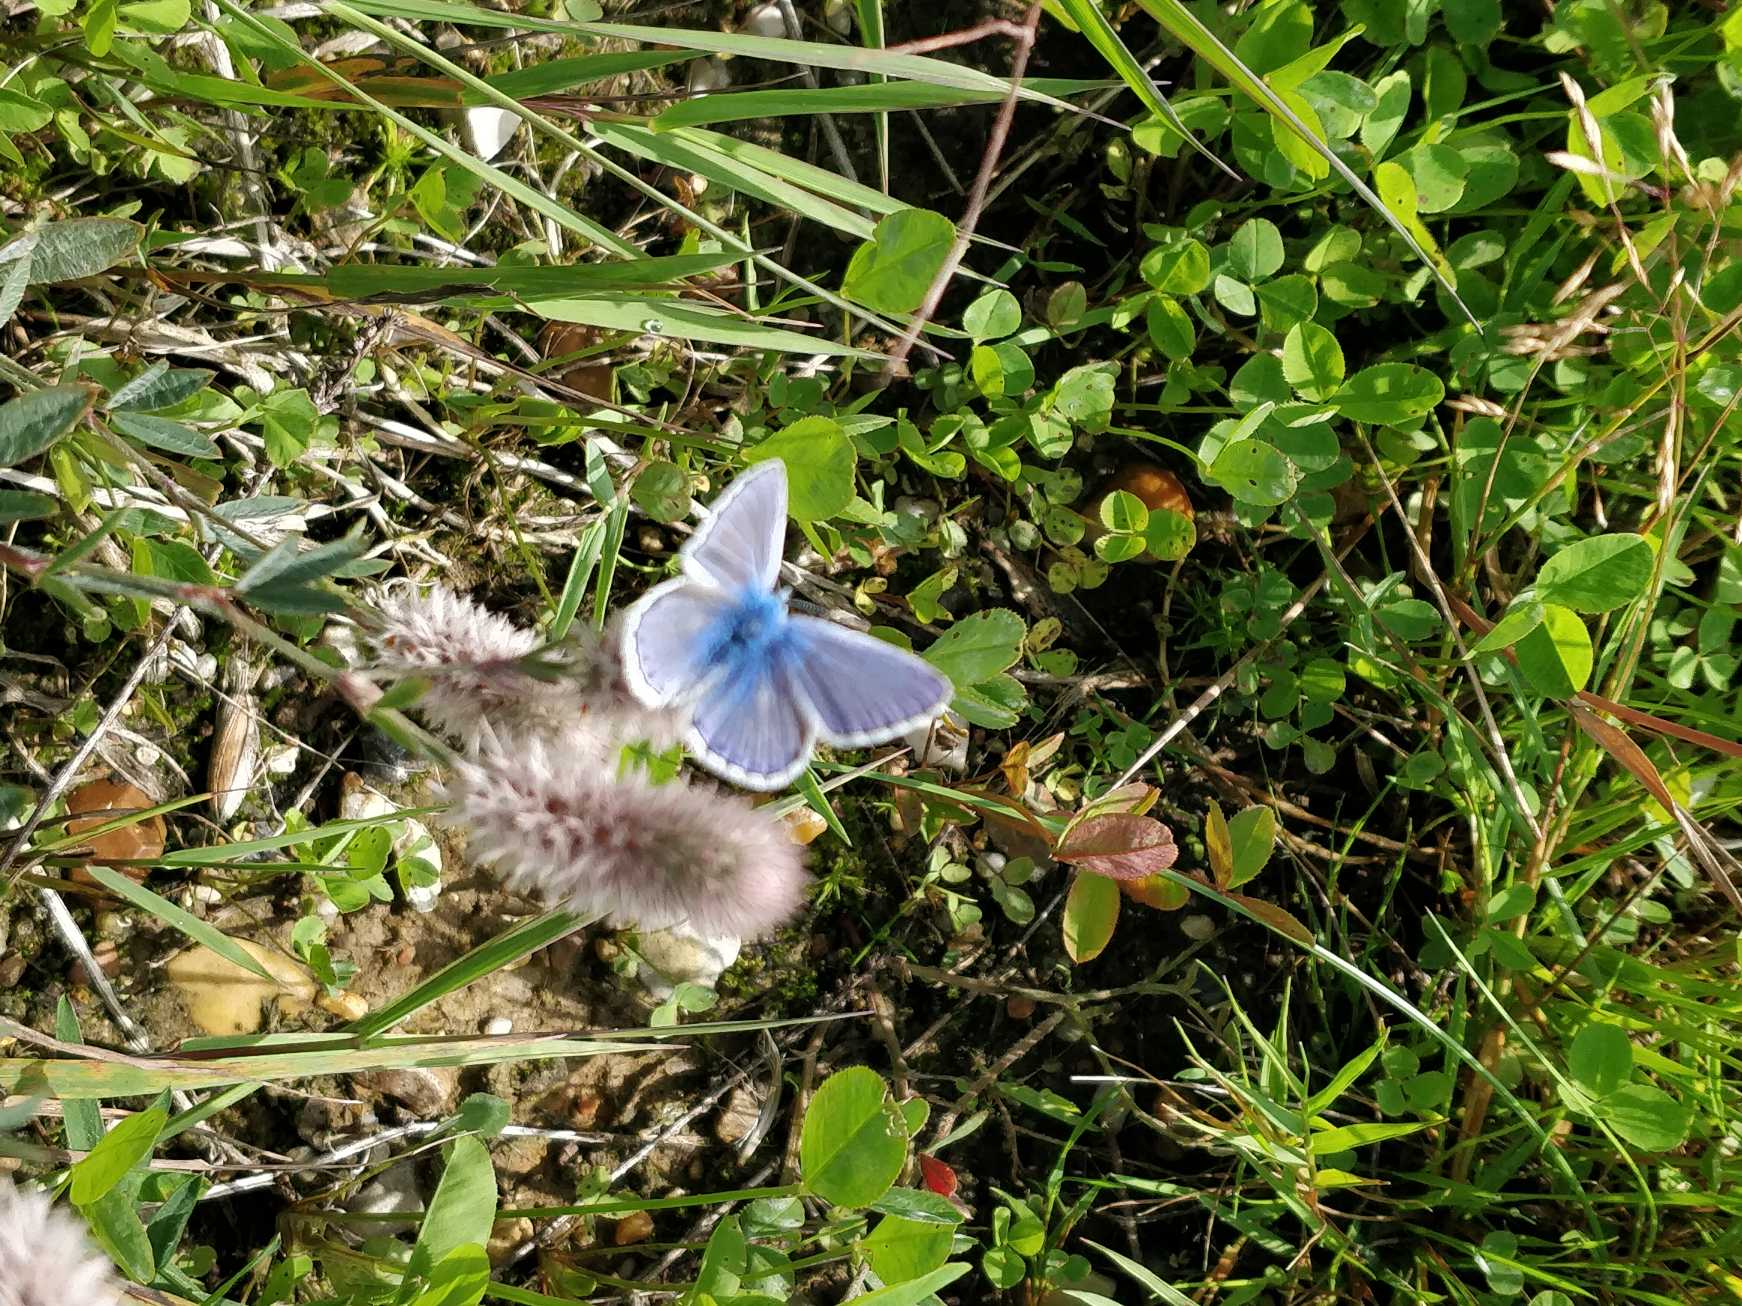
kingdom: Animalia
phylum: Arthropoda
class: Insecta
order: Lepidoptera
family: Lycaenidae
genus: Polyommatus
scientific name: Polyommatus icarus
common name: Almindelig blåfugl
